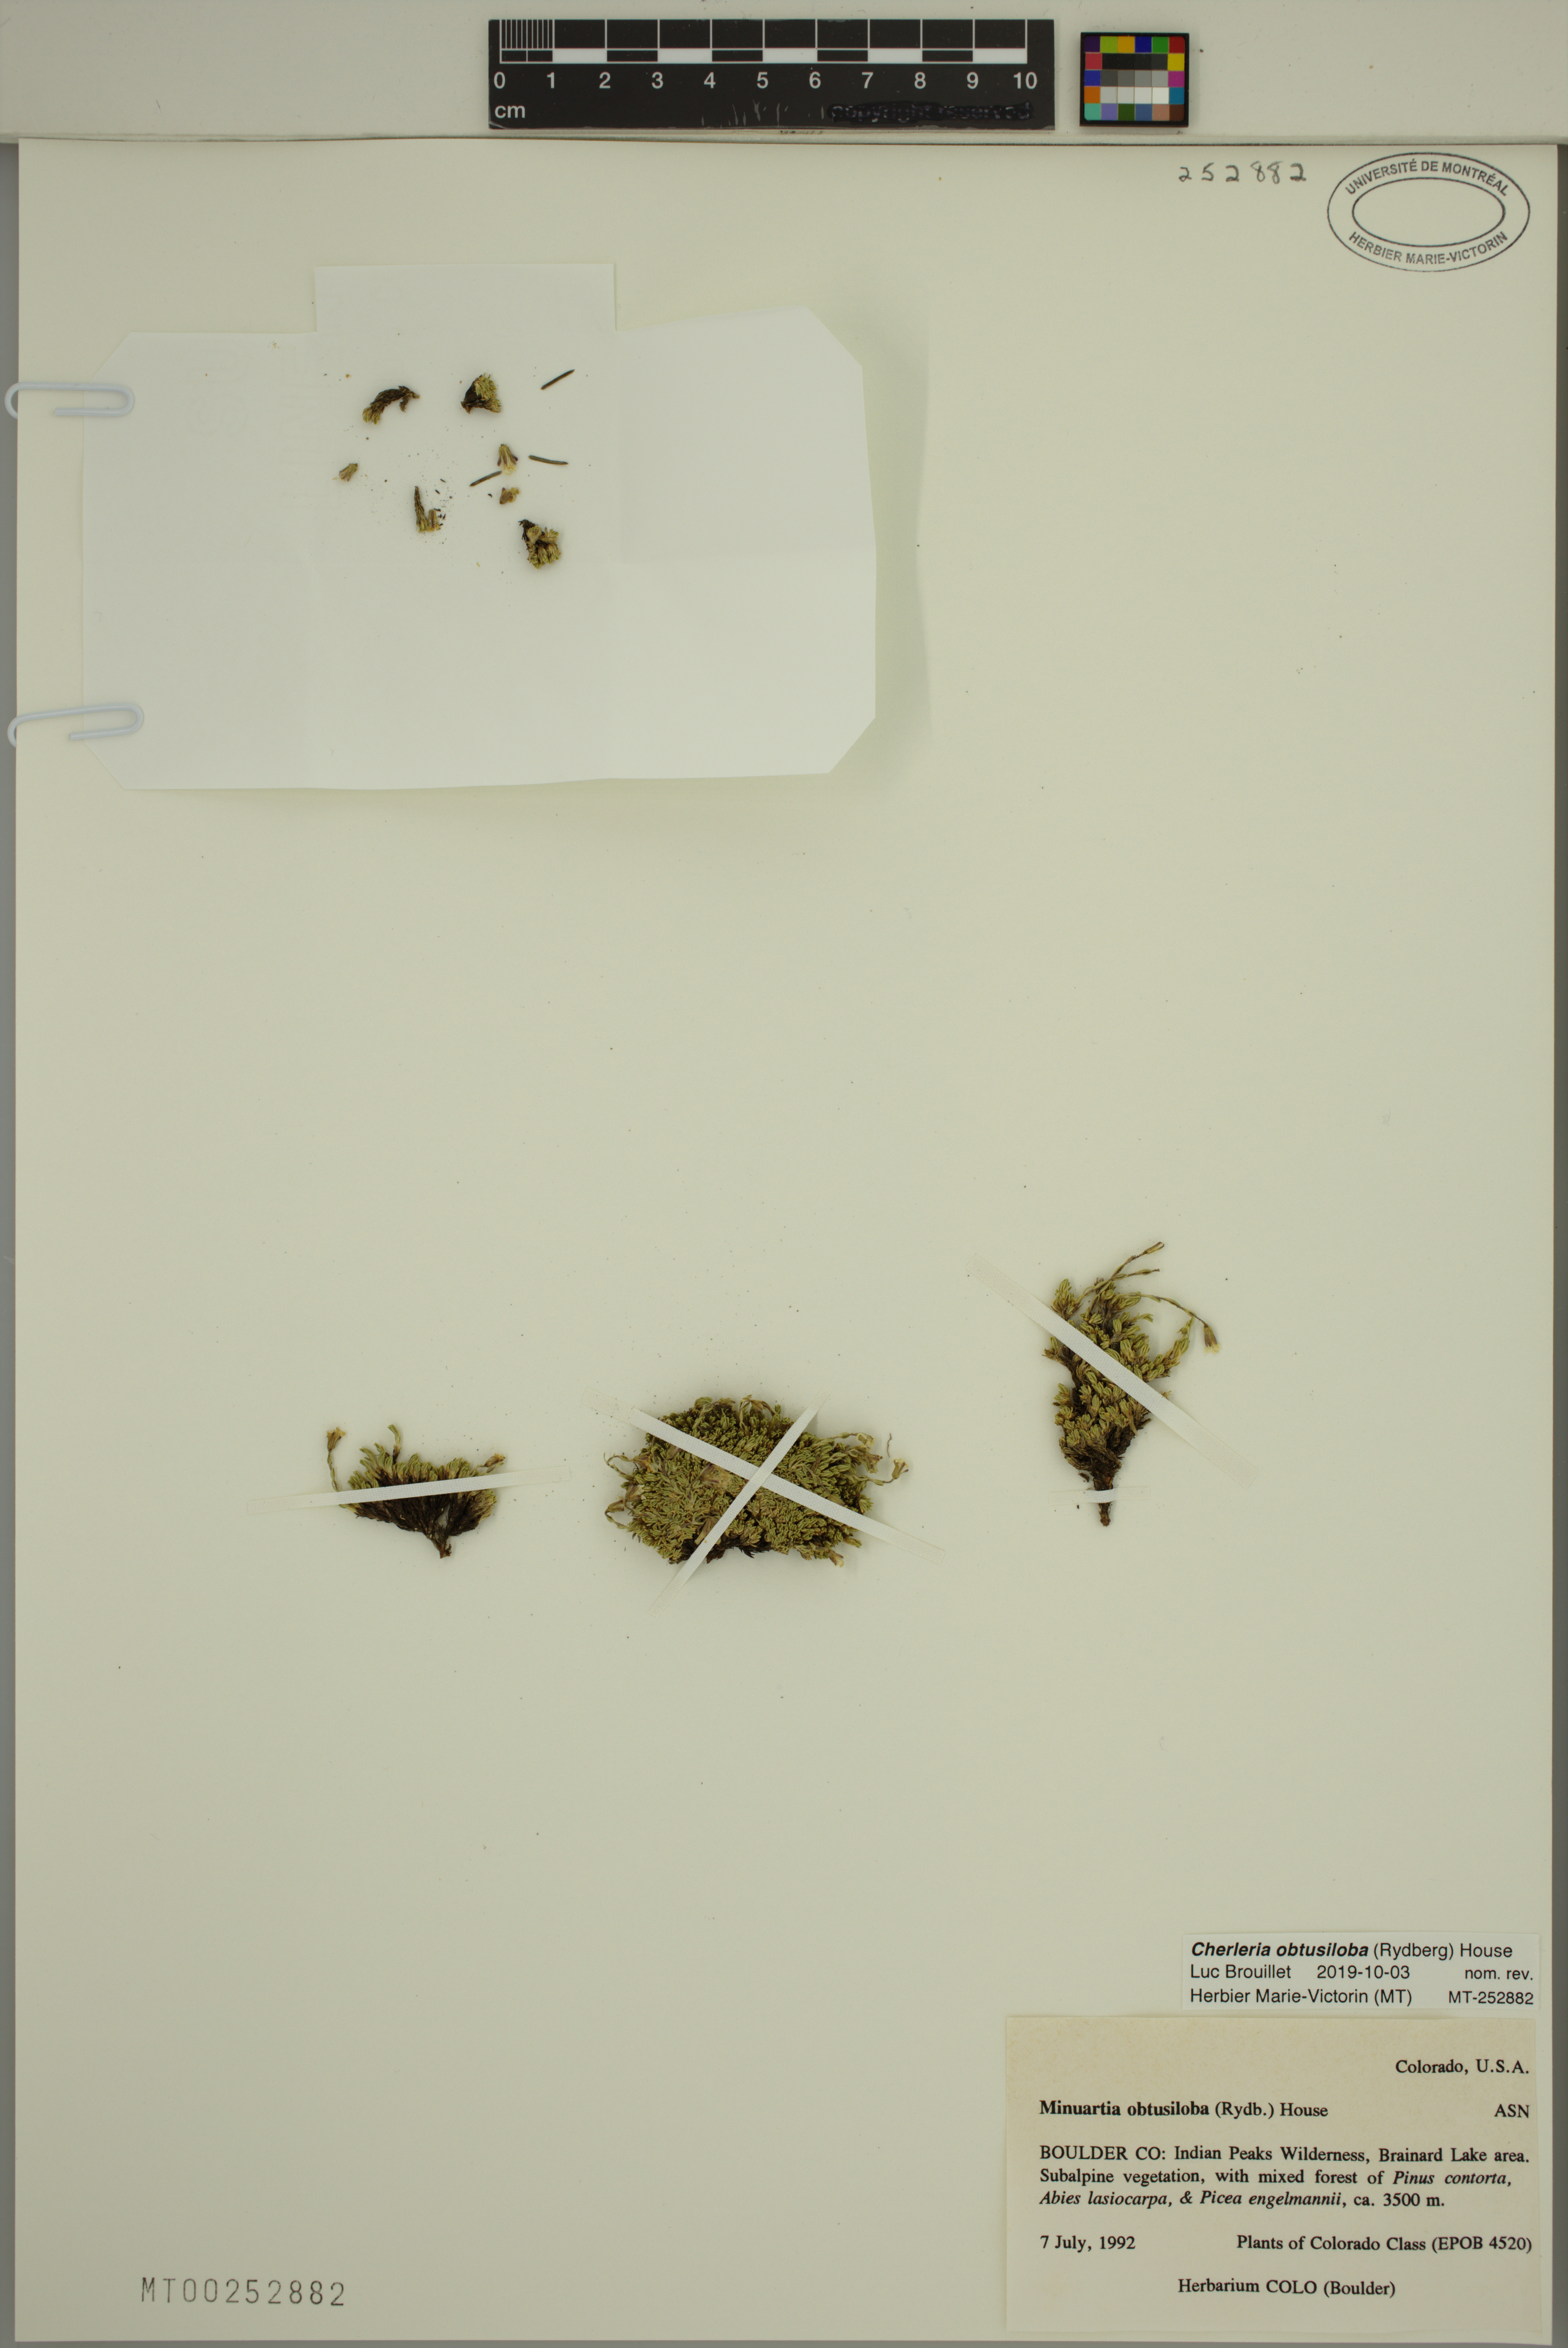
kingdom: Plantae
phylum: Tracheophyta
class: Magnoliopsida
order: Caryophyllales
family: Caryophyllaceae
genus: Cherleria
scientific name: Cherleria obtusiloba
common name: Alpine stitchwort
